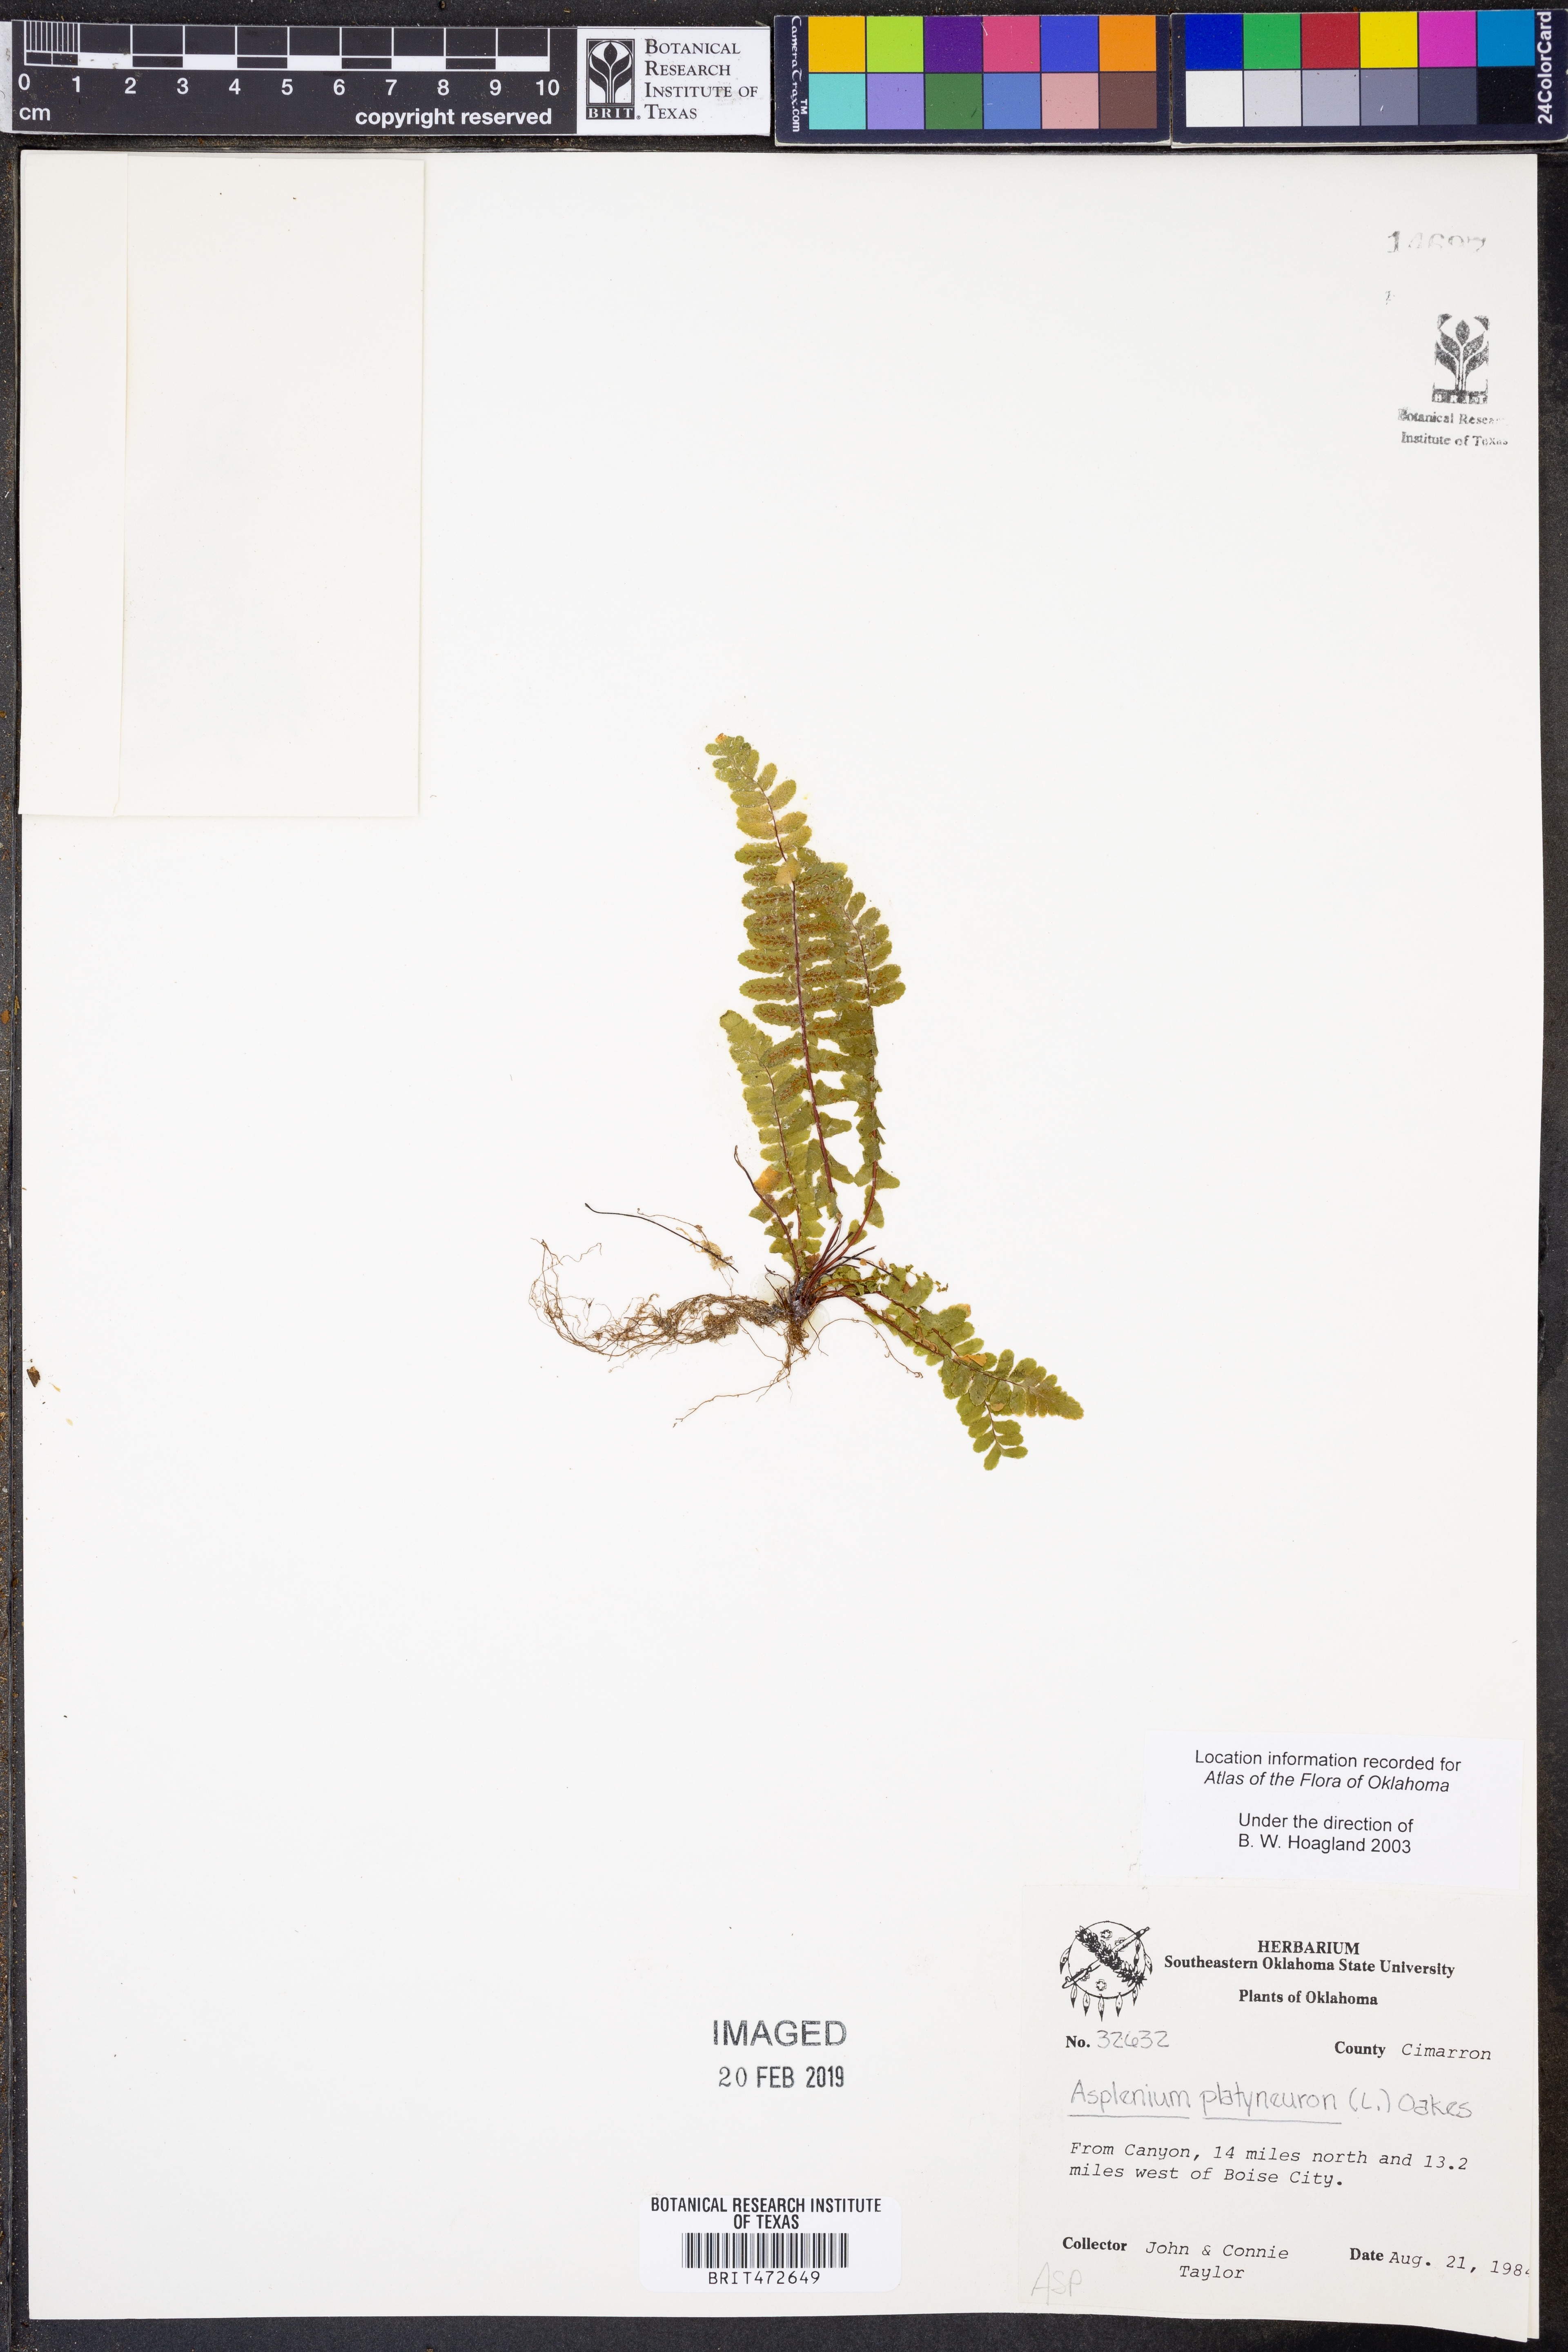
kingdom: Plantae
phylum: Tracheophyta
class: Polypodiopsida
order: Polypodiales
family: Aspleniaceae
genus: Asplenium
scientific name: Asplenium platyneuron
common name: Ebony spleenwort
